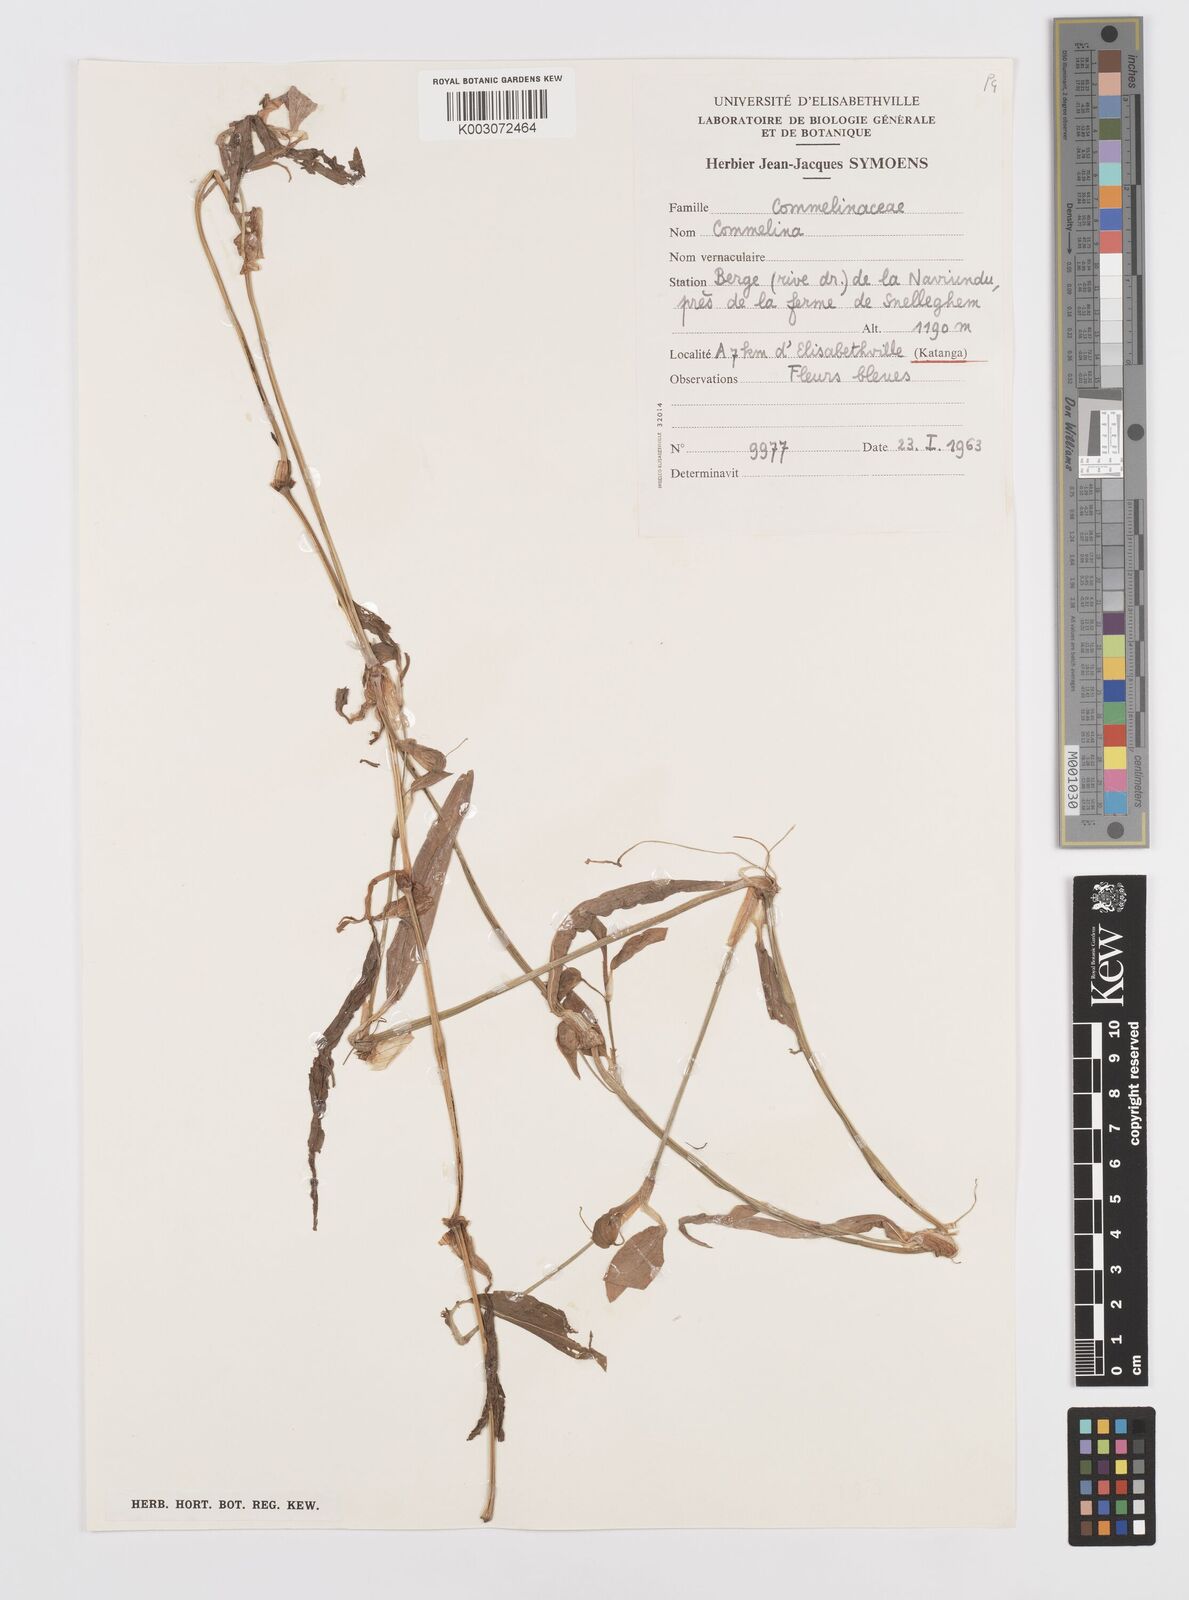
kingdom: Plantae
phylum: Tracheophyta
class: Liliopsida
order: Commelinales
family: Commelinaceae
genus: Commelina
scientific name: Commelina
